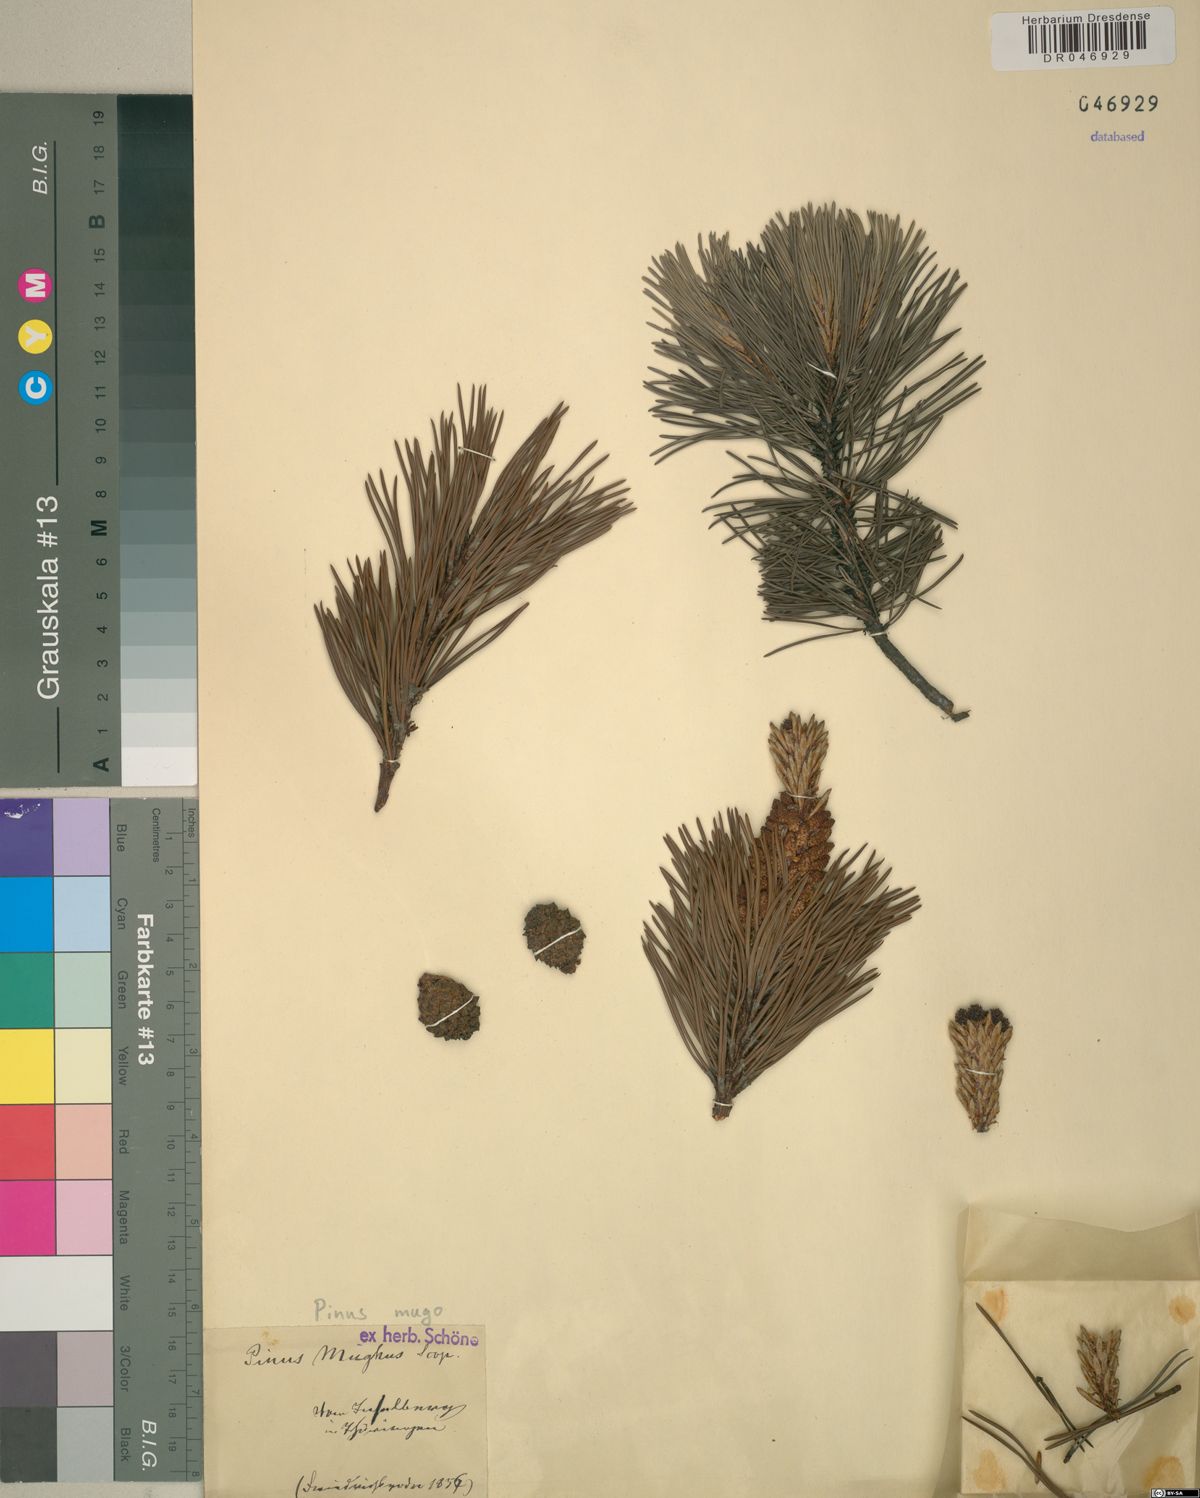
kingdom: Plantae
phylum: Tracheophyta
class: Pinopsida
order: Pinales
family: Pinaceae
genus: Pinus
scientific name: Pinus mugo
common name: Mugo pine
